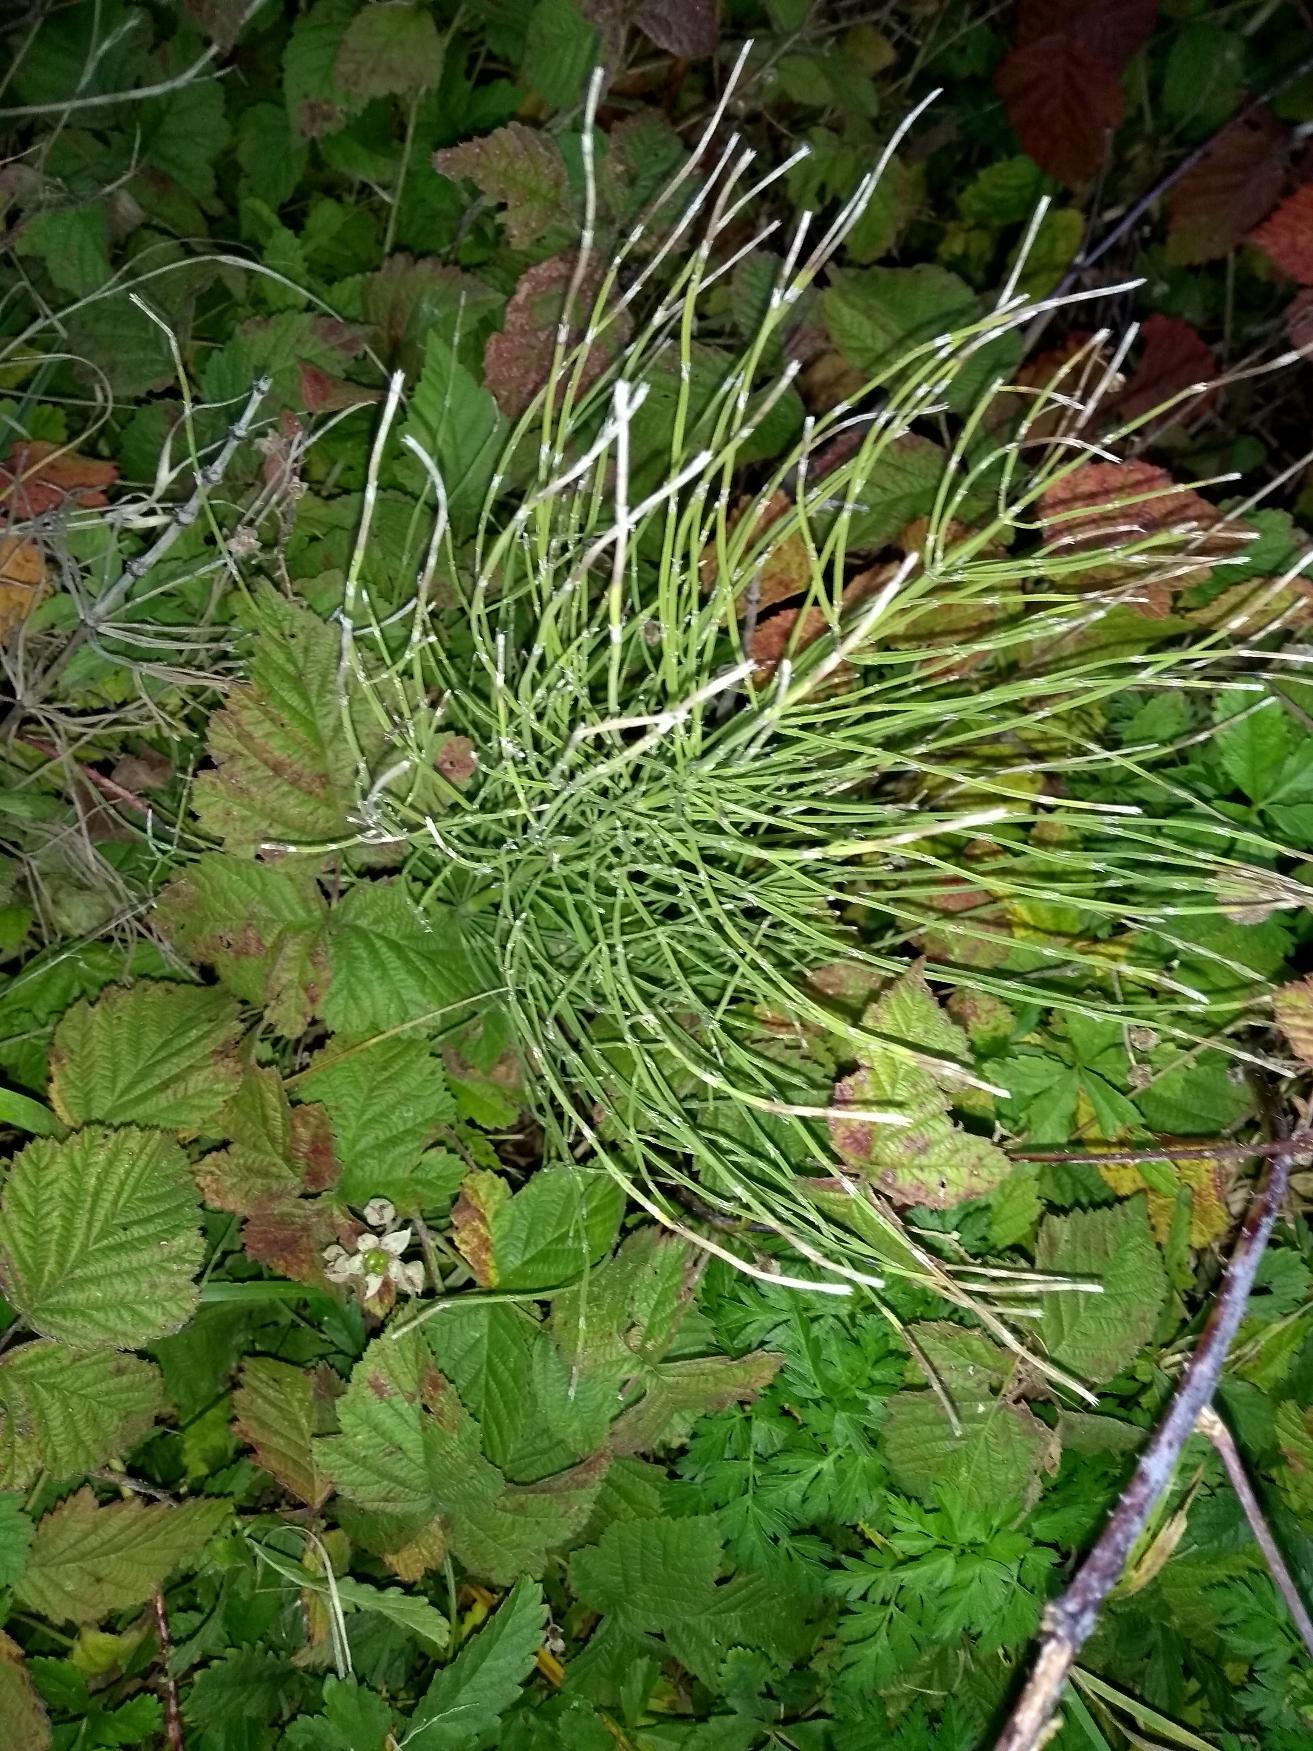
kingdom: Plantae
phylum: Tracheophyta
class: Polypodiopsida
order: Equisetales
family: Equisetaceae
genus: Equisetum
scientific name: Equisetum arvense
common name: Ager-padderok
